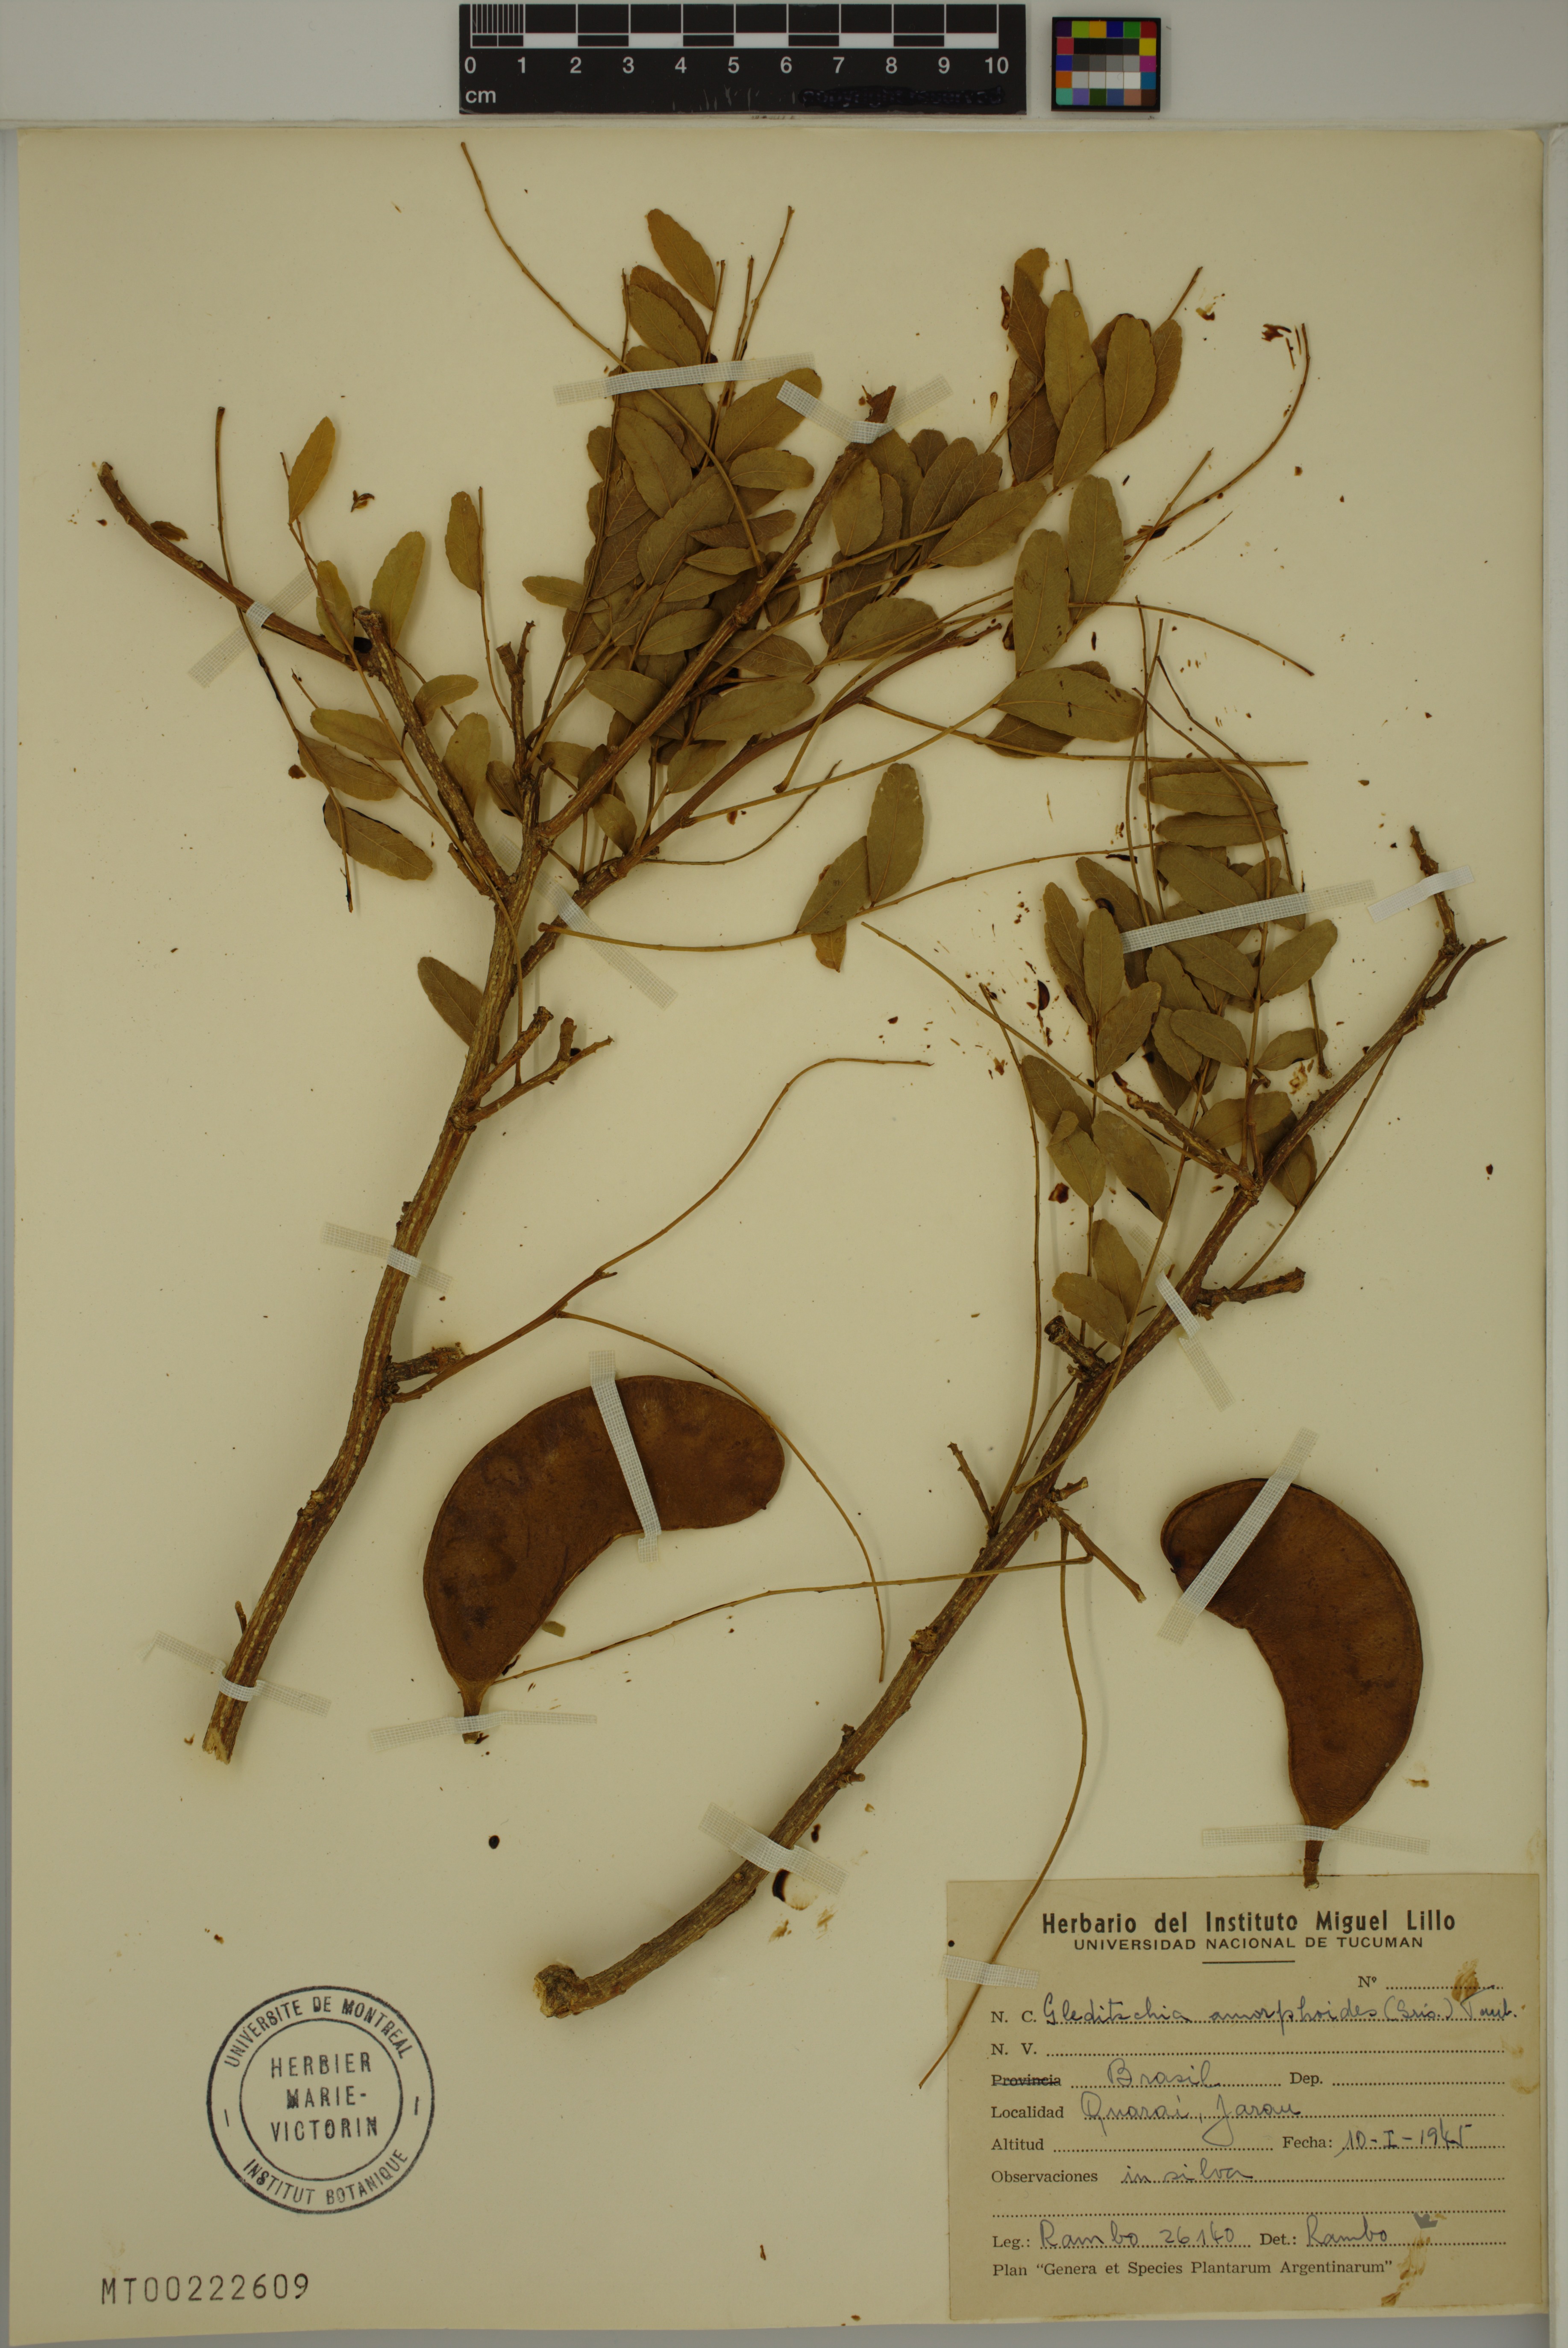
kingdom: Plantae
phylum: Tracheophyta
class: Magnoliopsida
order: Fabales
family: Fabaceae
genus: Gleditsia
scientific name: Gleditsia amorphoides
